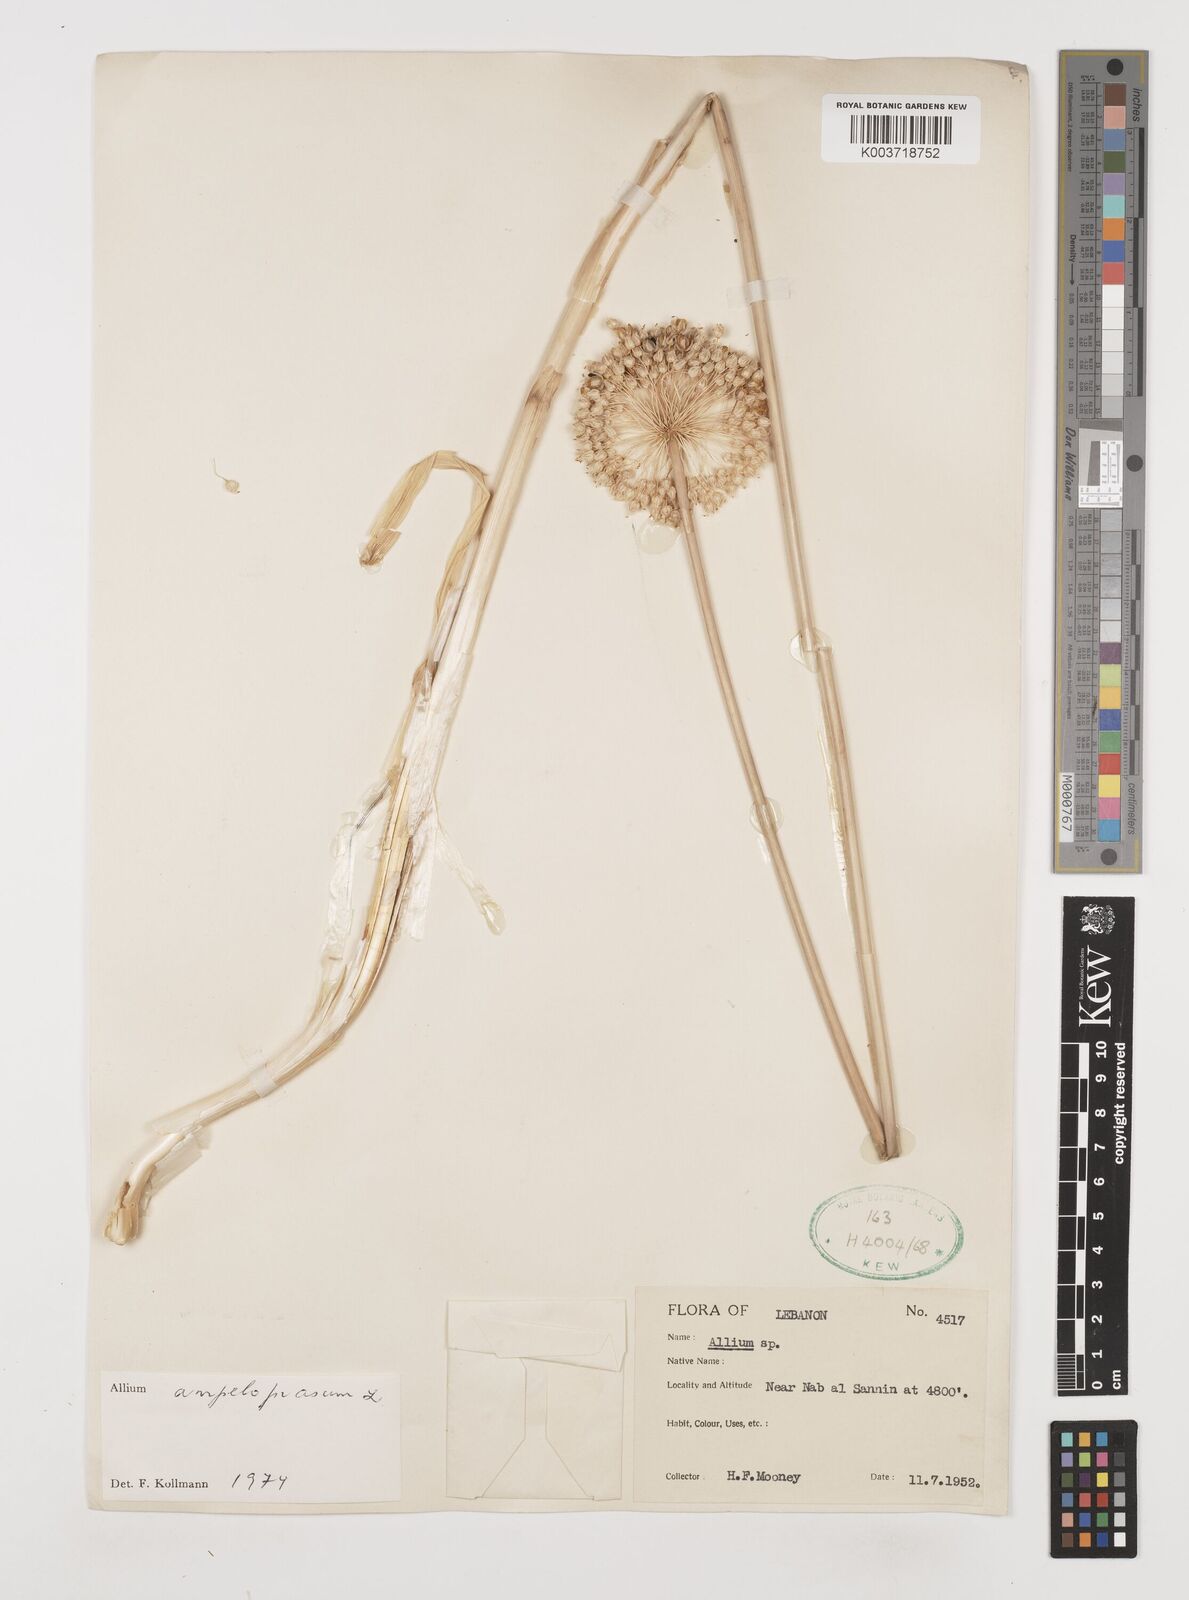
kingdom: Plantae
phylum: Tracheophyta
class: Liliopsida
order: Asparagales
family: Amaryllidaceae
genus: Allium
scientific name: Allium rotundum
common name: Sand leek
